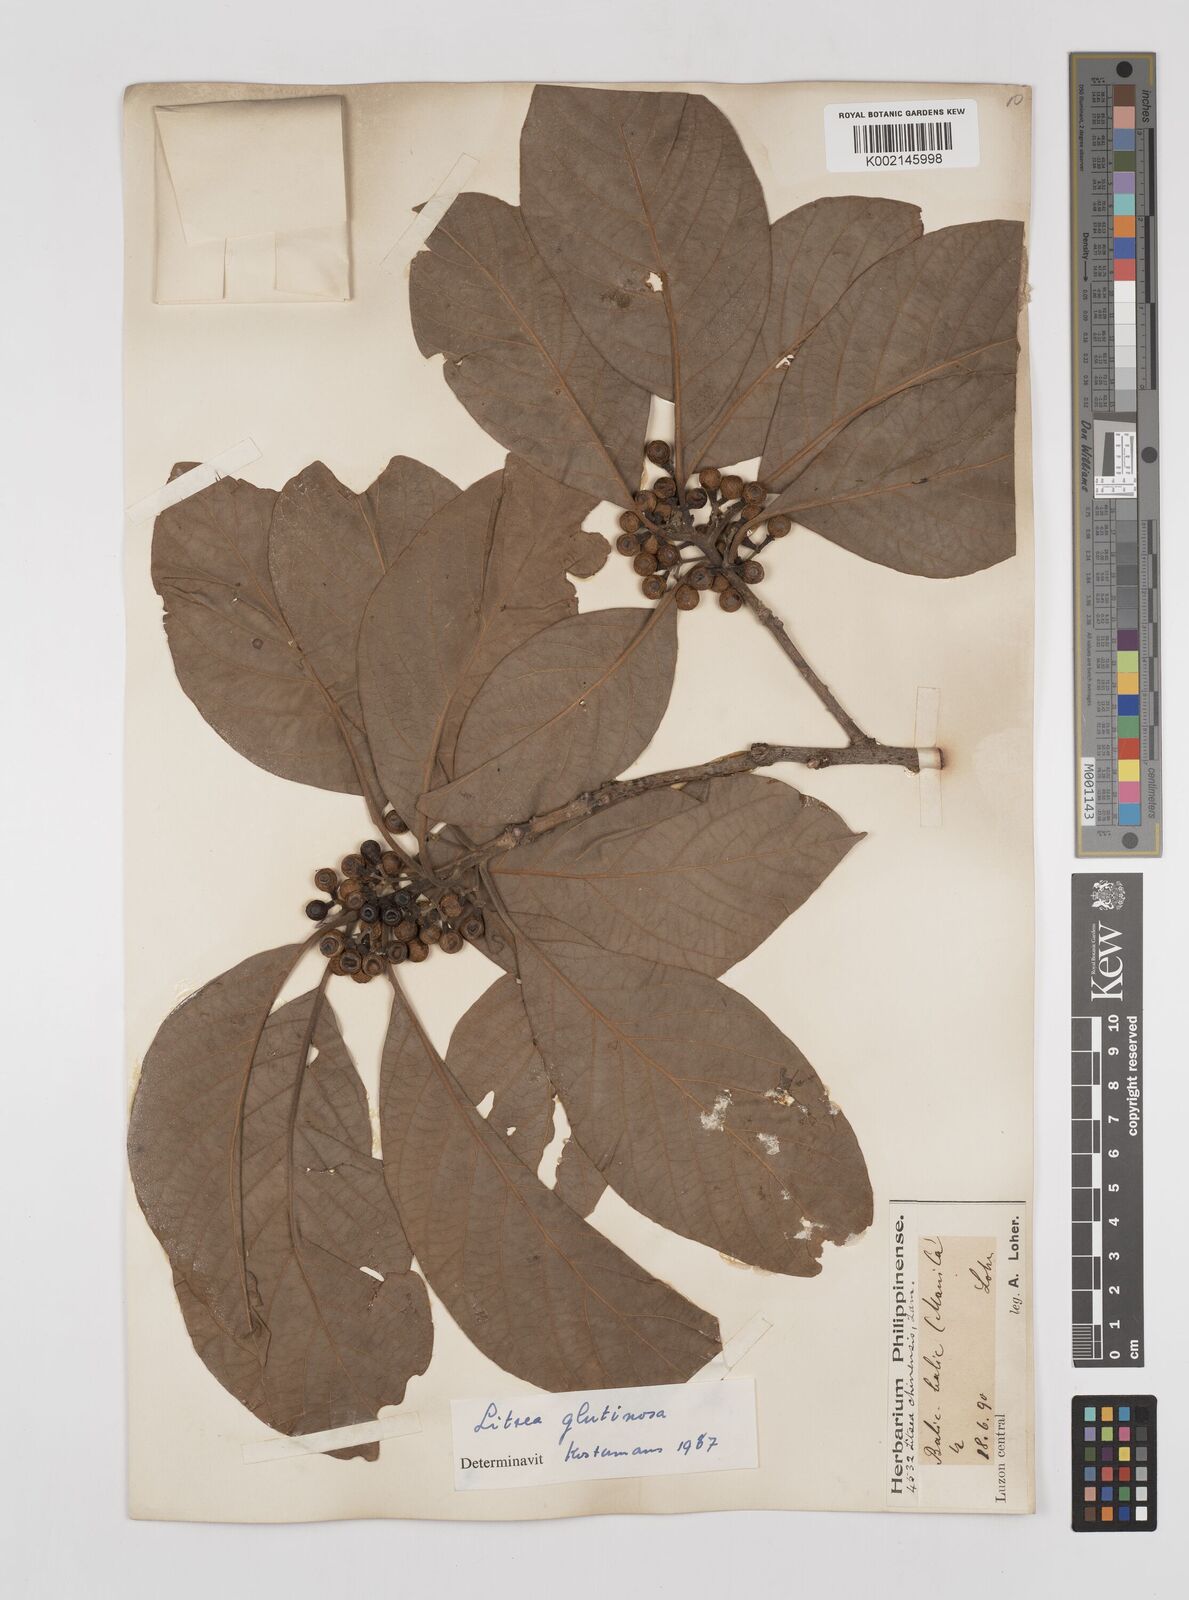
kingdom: Plantae
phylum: Tracheophyta
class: Magnoliopsida
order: Laurales
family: Lauraceae
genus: Litsea
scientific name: Litsea
